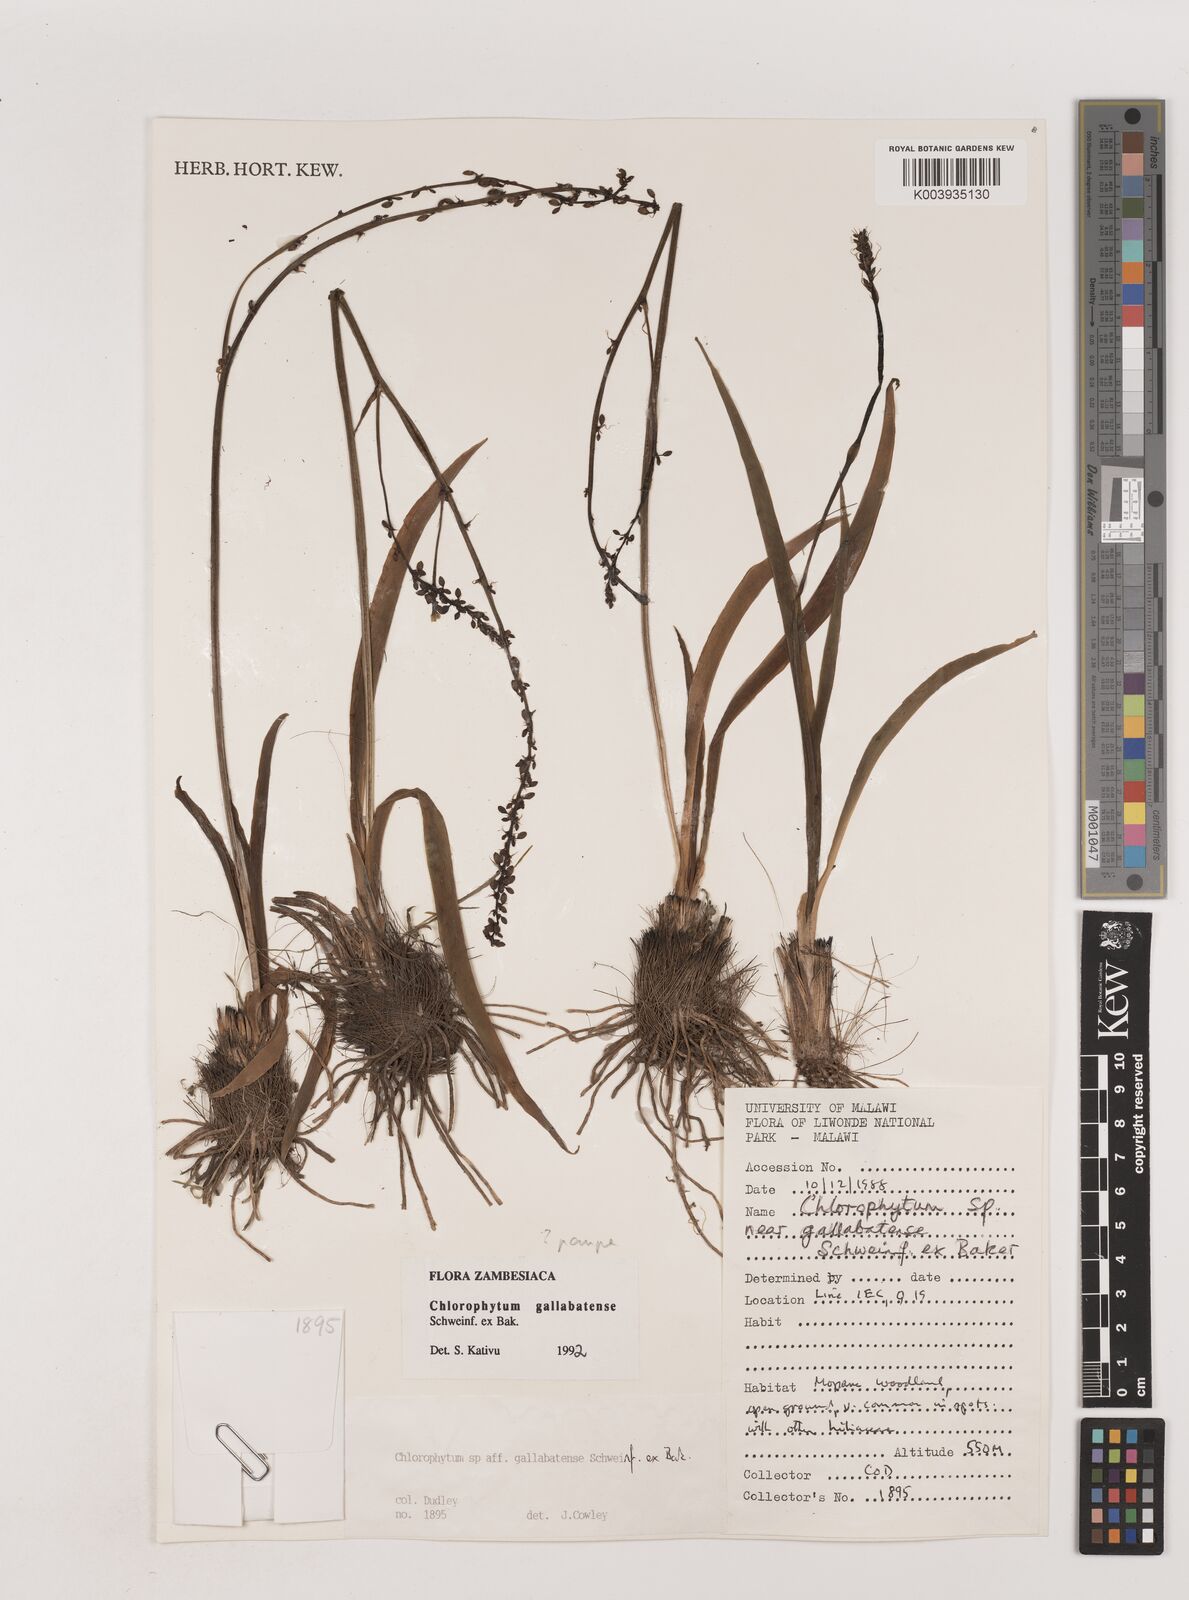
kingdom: Plantae
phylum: Tracheophyta
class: Liliopsida
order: Asparagales
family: Asparagaceae
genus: Chlorophytum
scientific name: Chlorophytum pauper
